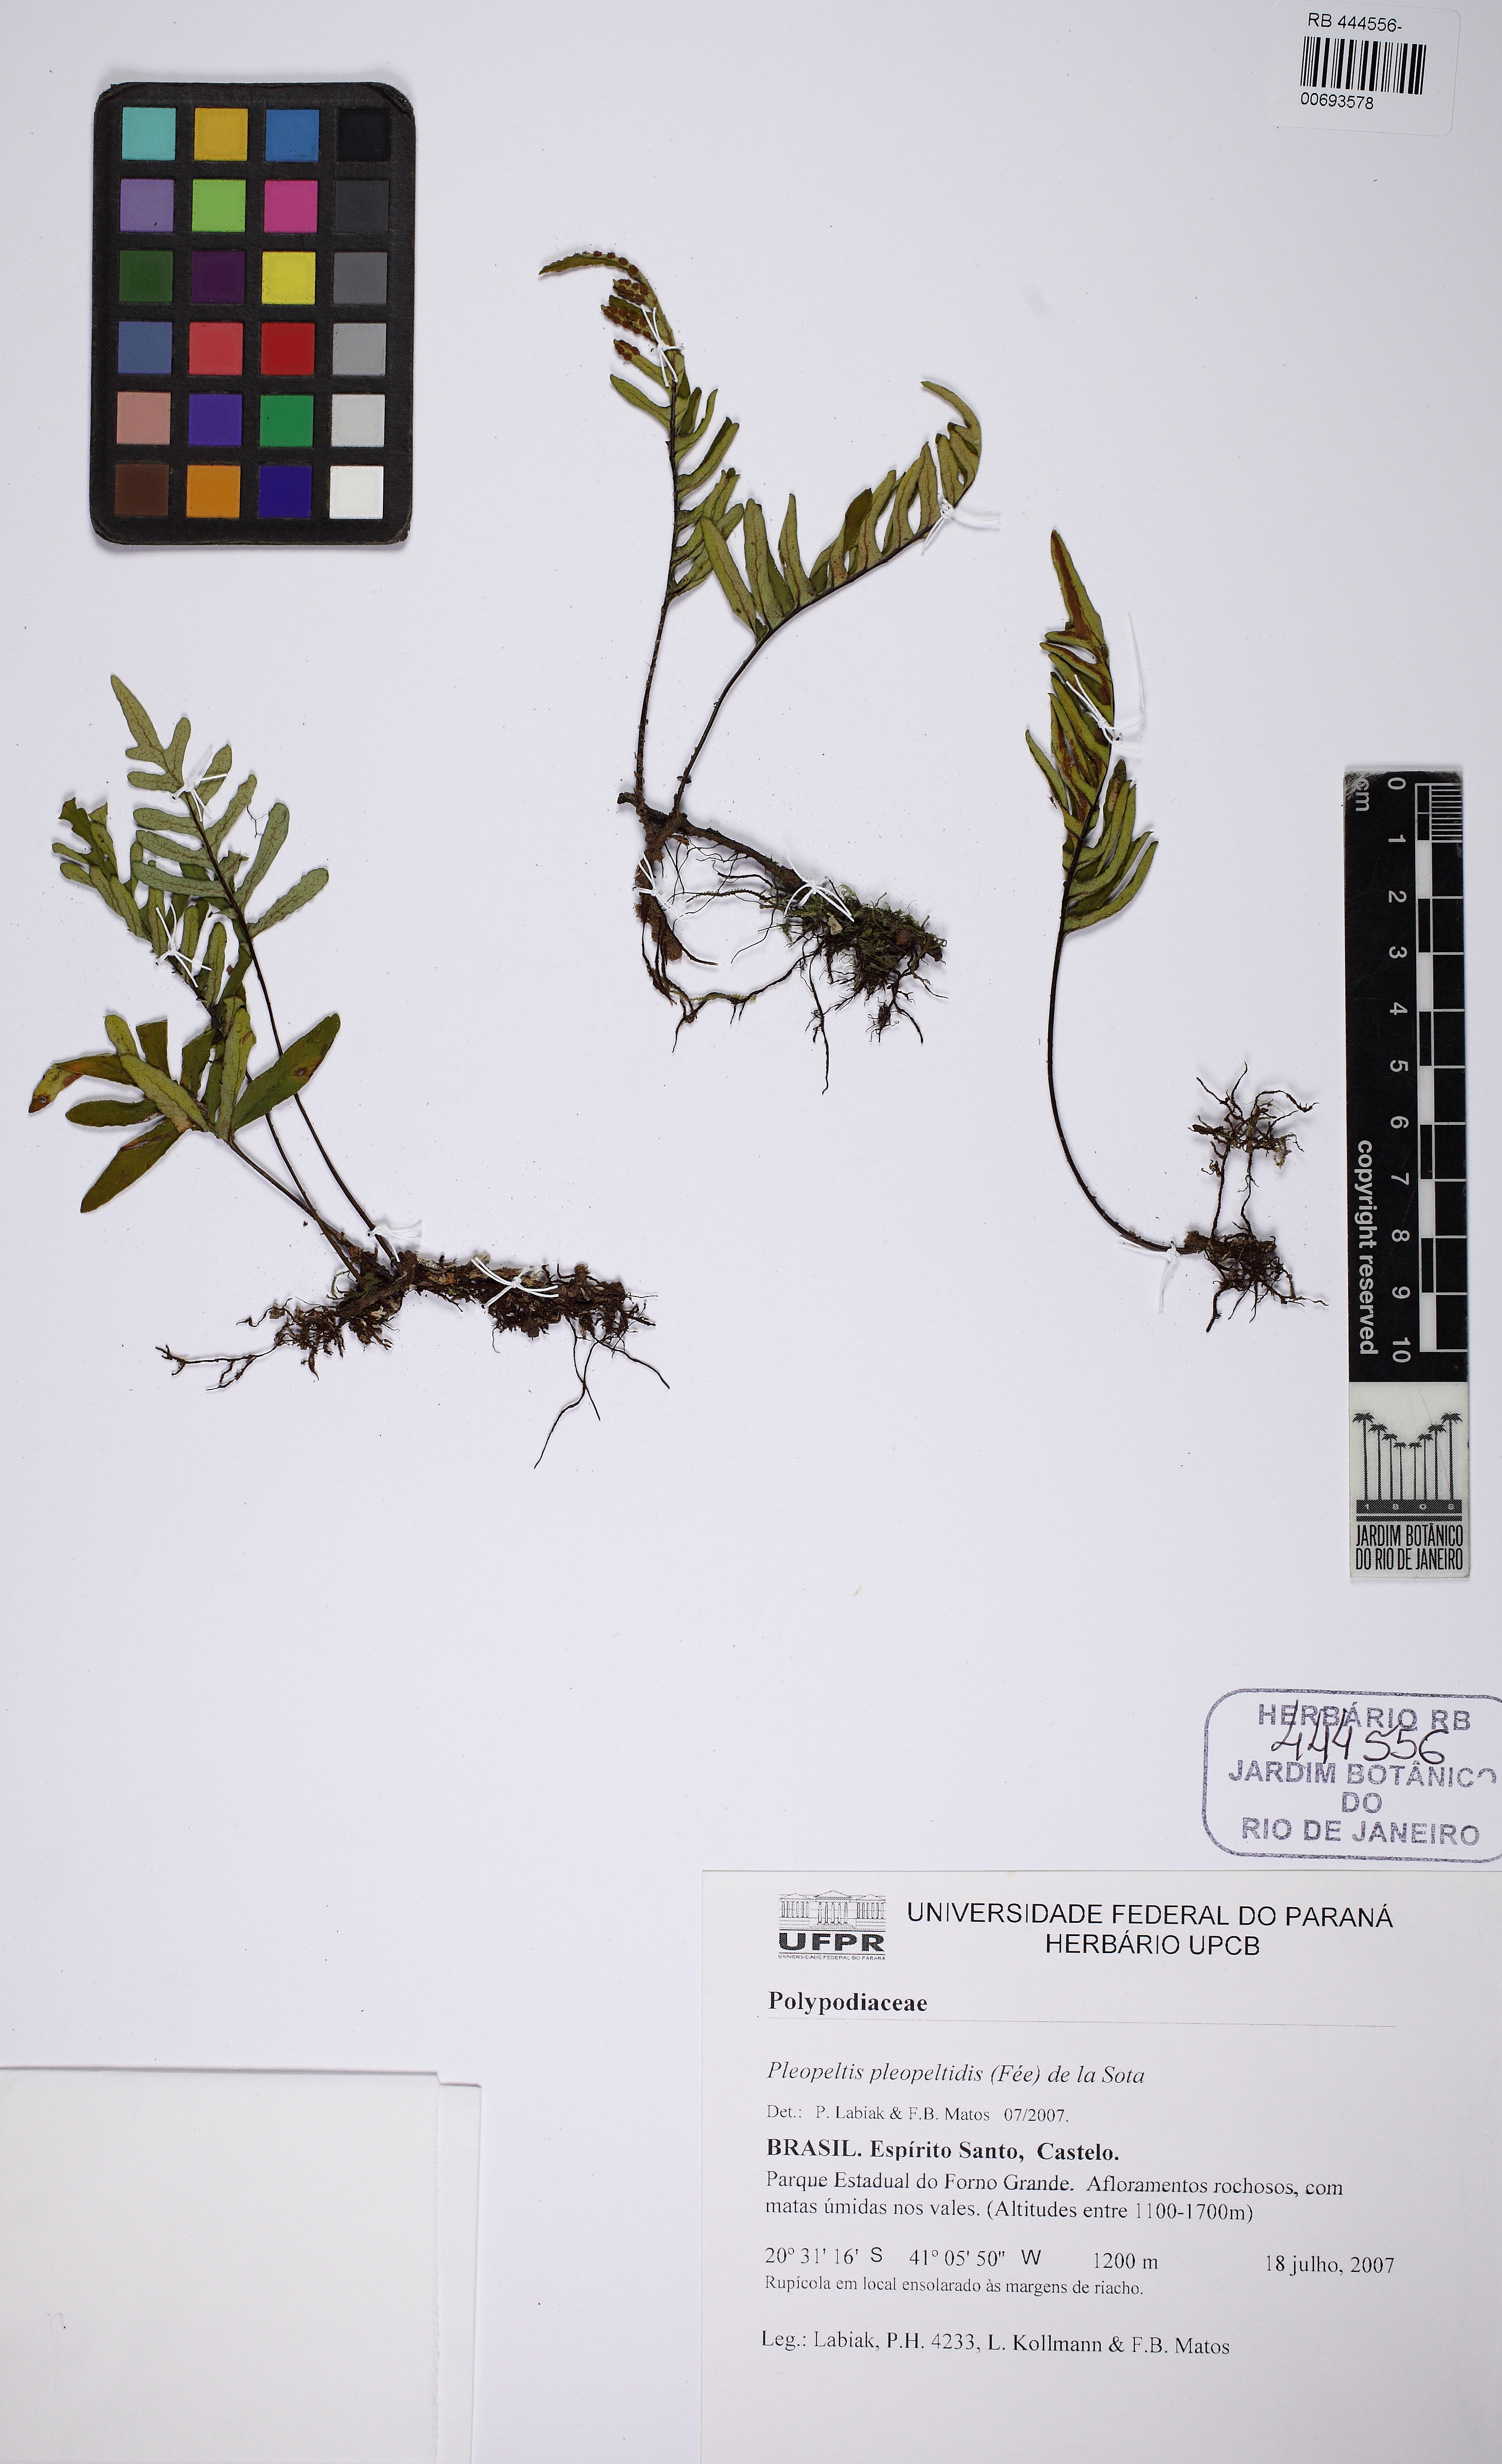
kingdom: Plantae
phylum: Tracheophyta
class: Polypodiopsida
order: Polypodiales
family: Polypodiaceae
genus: Pleopeltis
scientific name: Pleopeltis pleopeltidis
